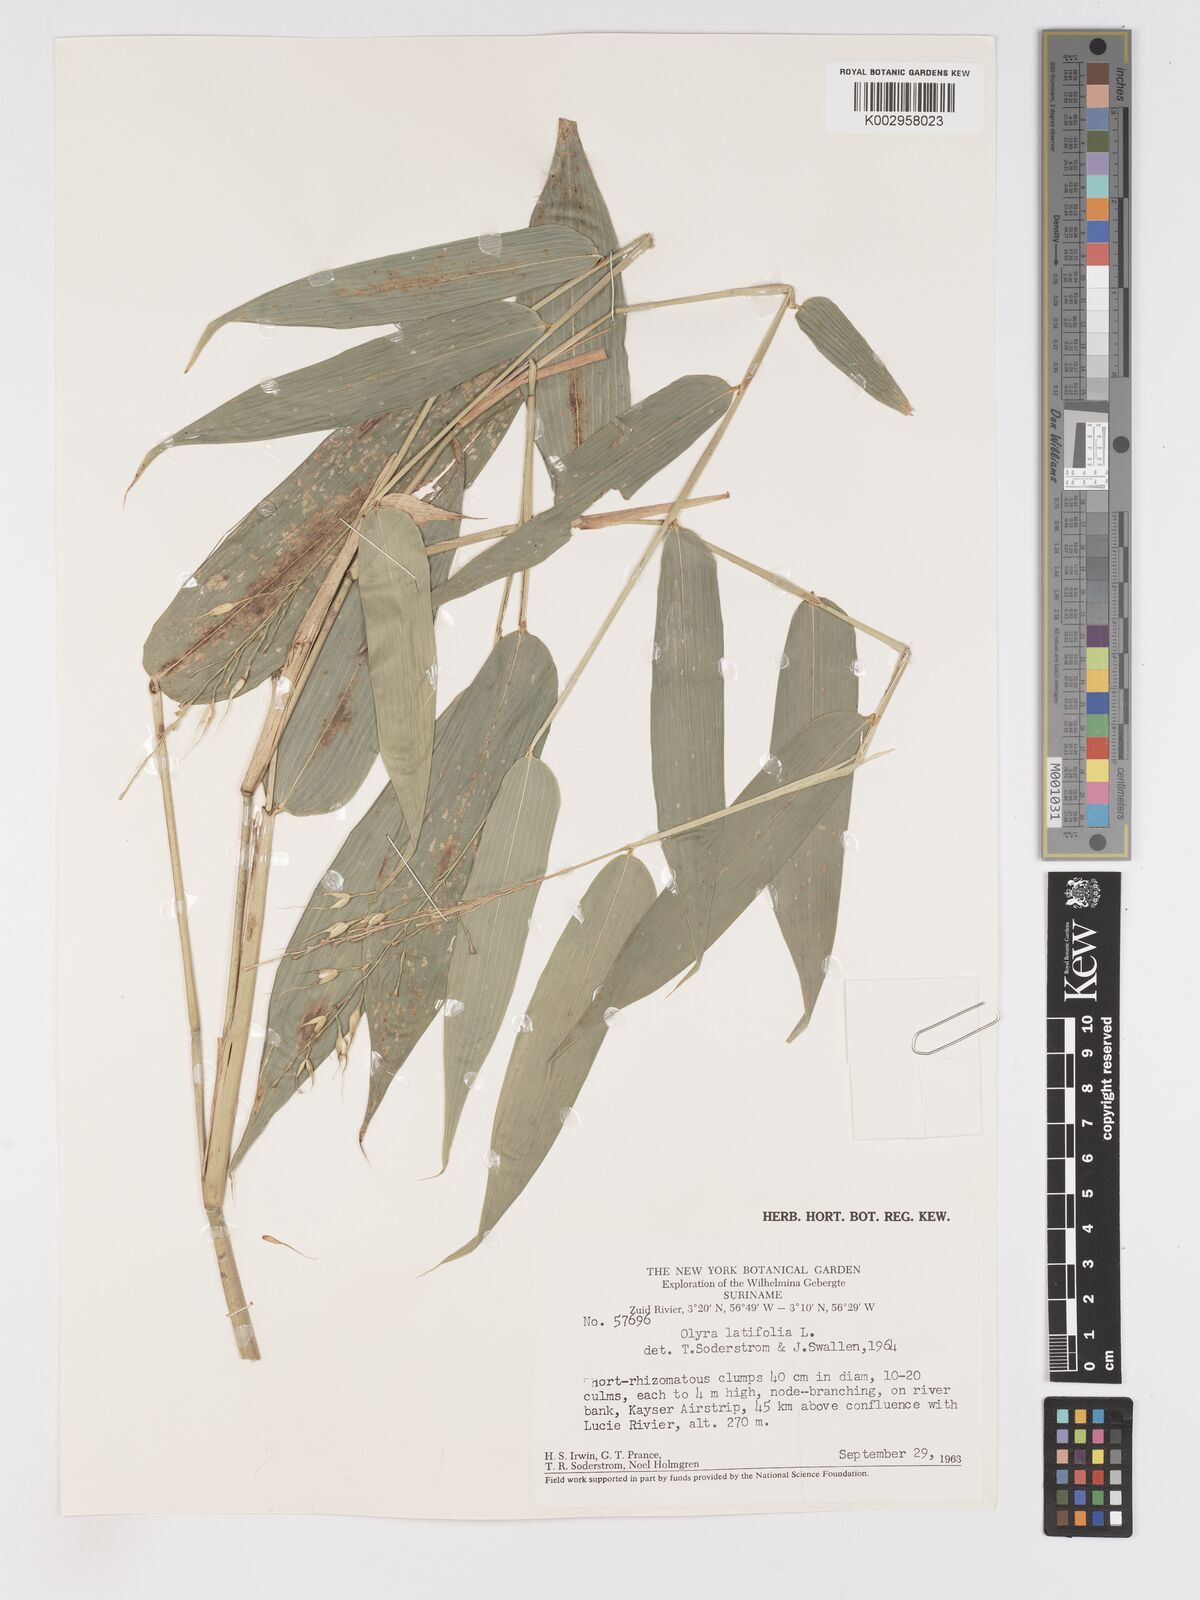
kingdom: Plantae
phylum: Tracheophyta
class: Liliopsida
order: Poales
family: Poaceae
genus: Olyra
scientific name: Olyra latifolia
